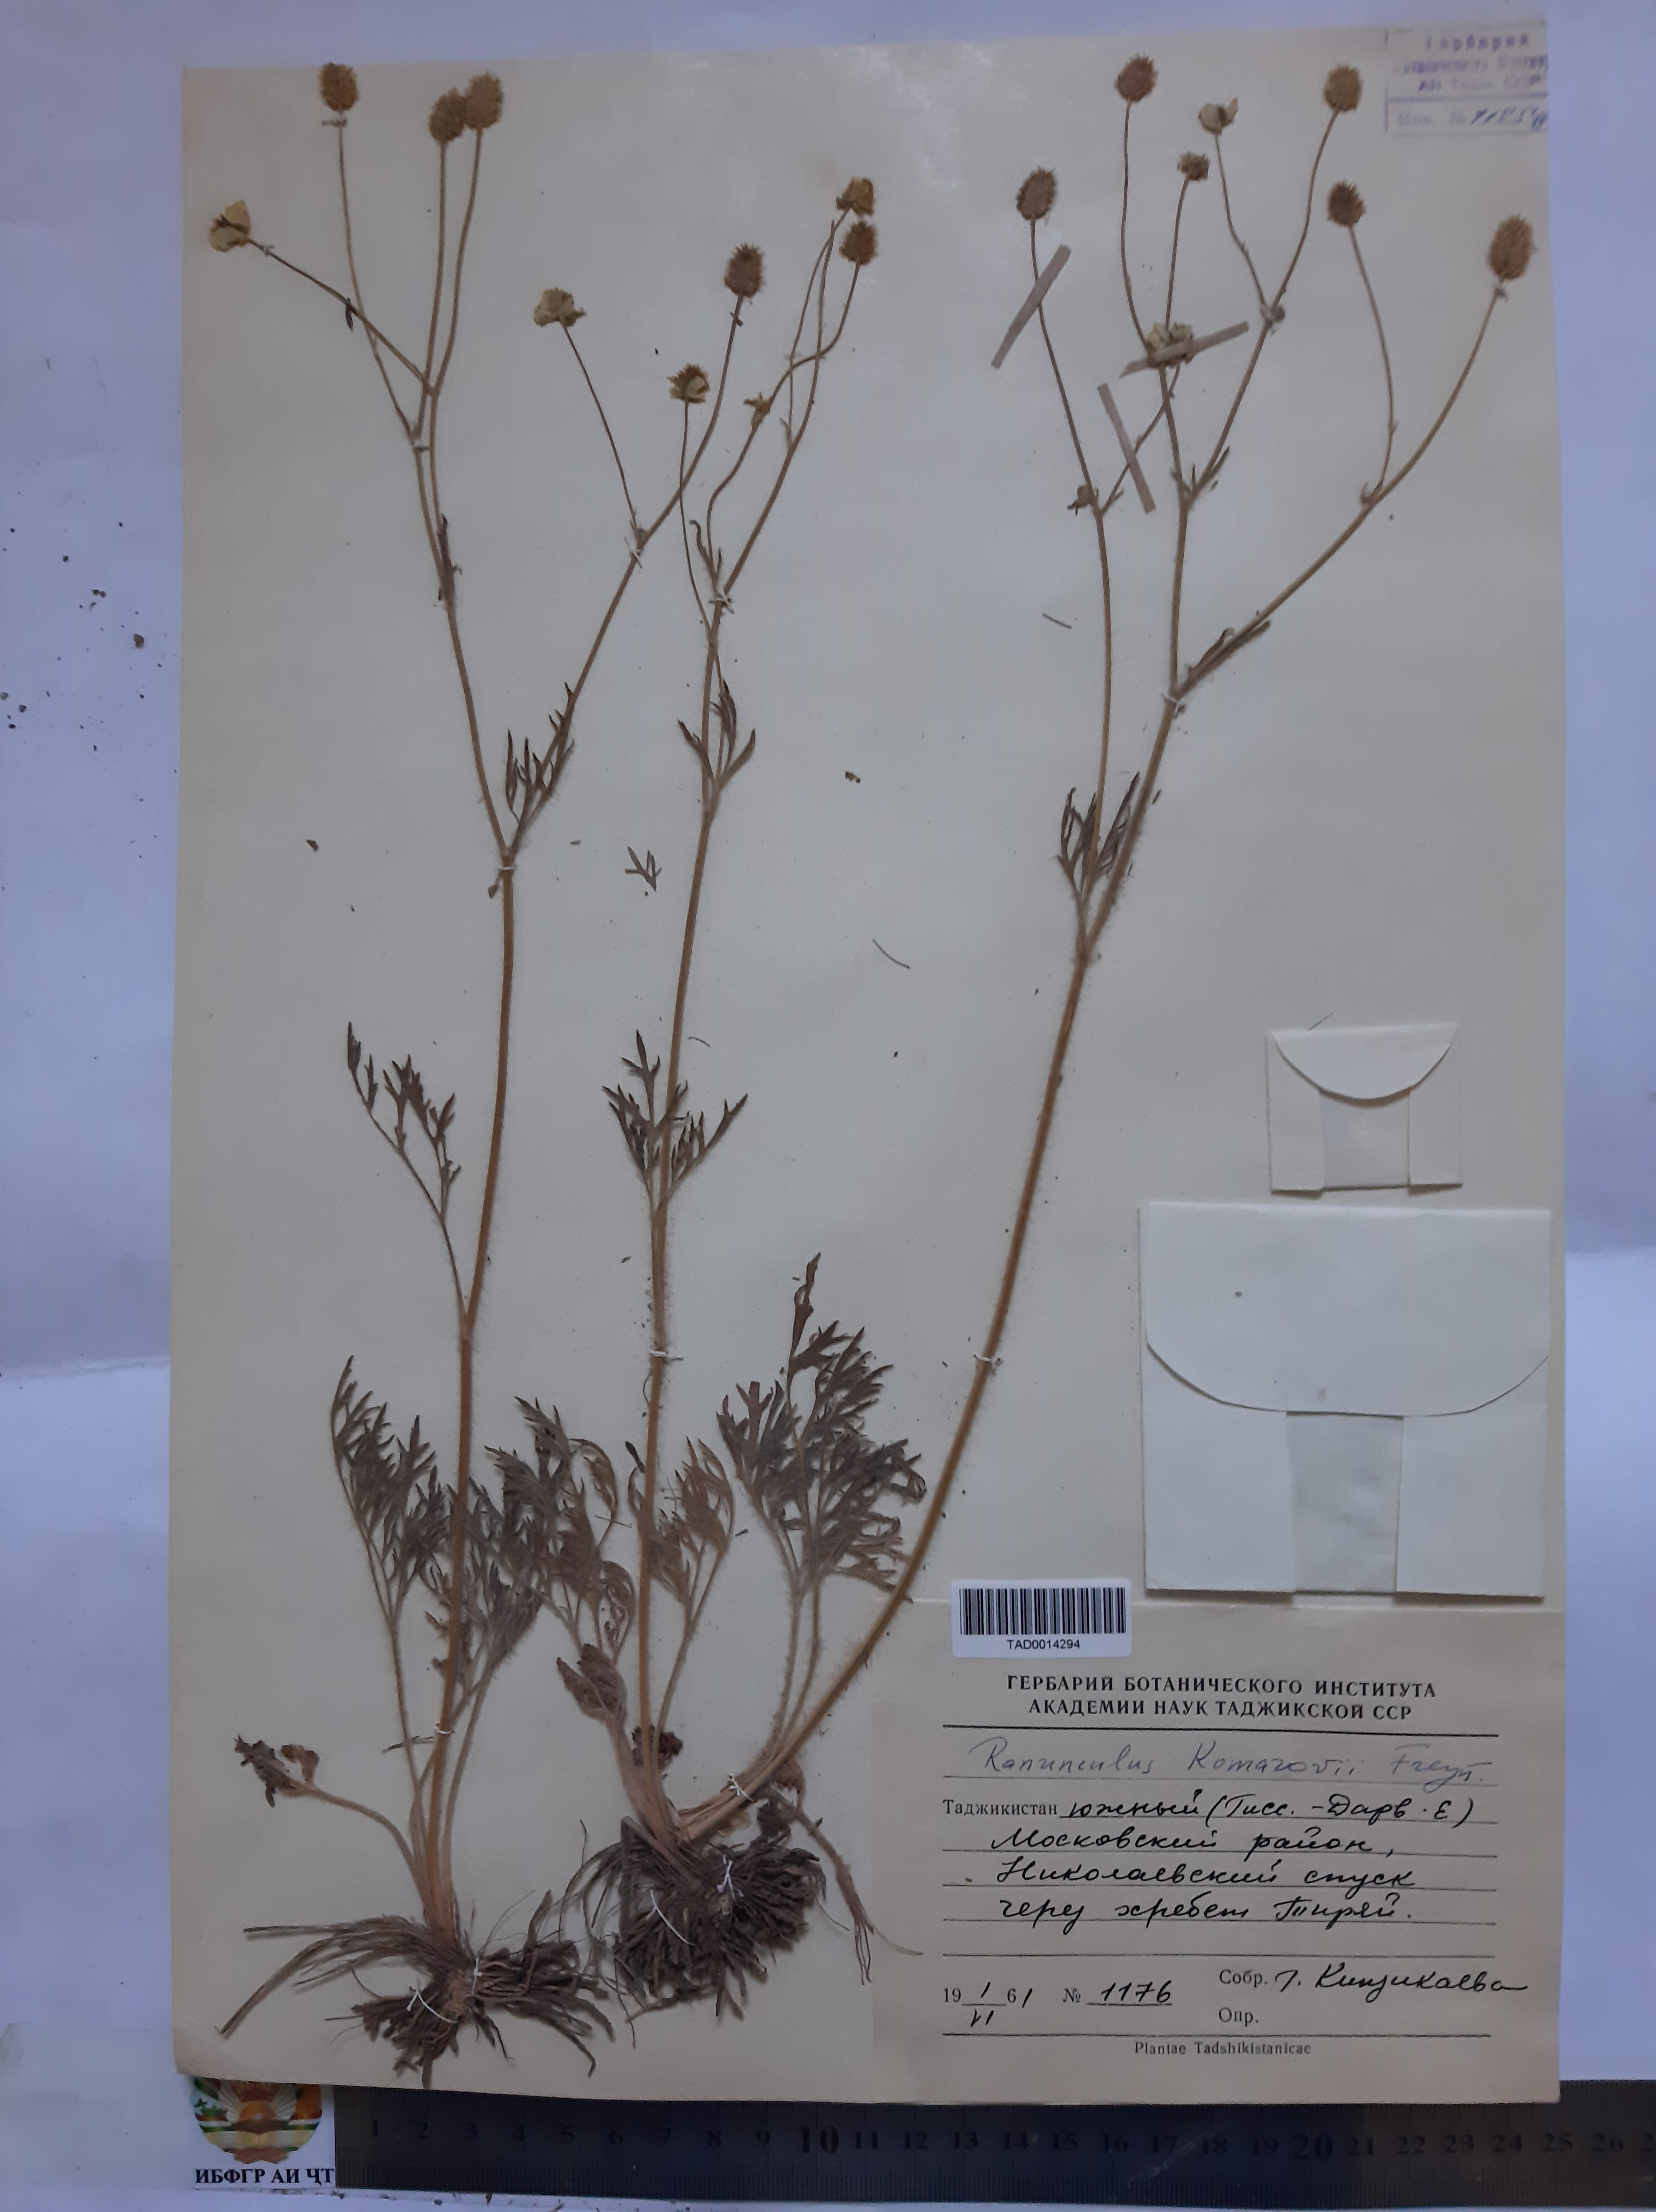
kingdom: Plantae
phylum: Tracheophyta
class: Magnoliopsida
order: Ranunculales
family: Ranunculaceae
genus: Ranunculus
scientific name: Ranunculus komarovii
